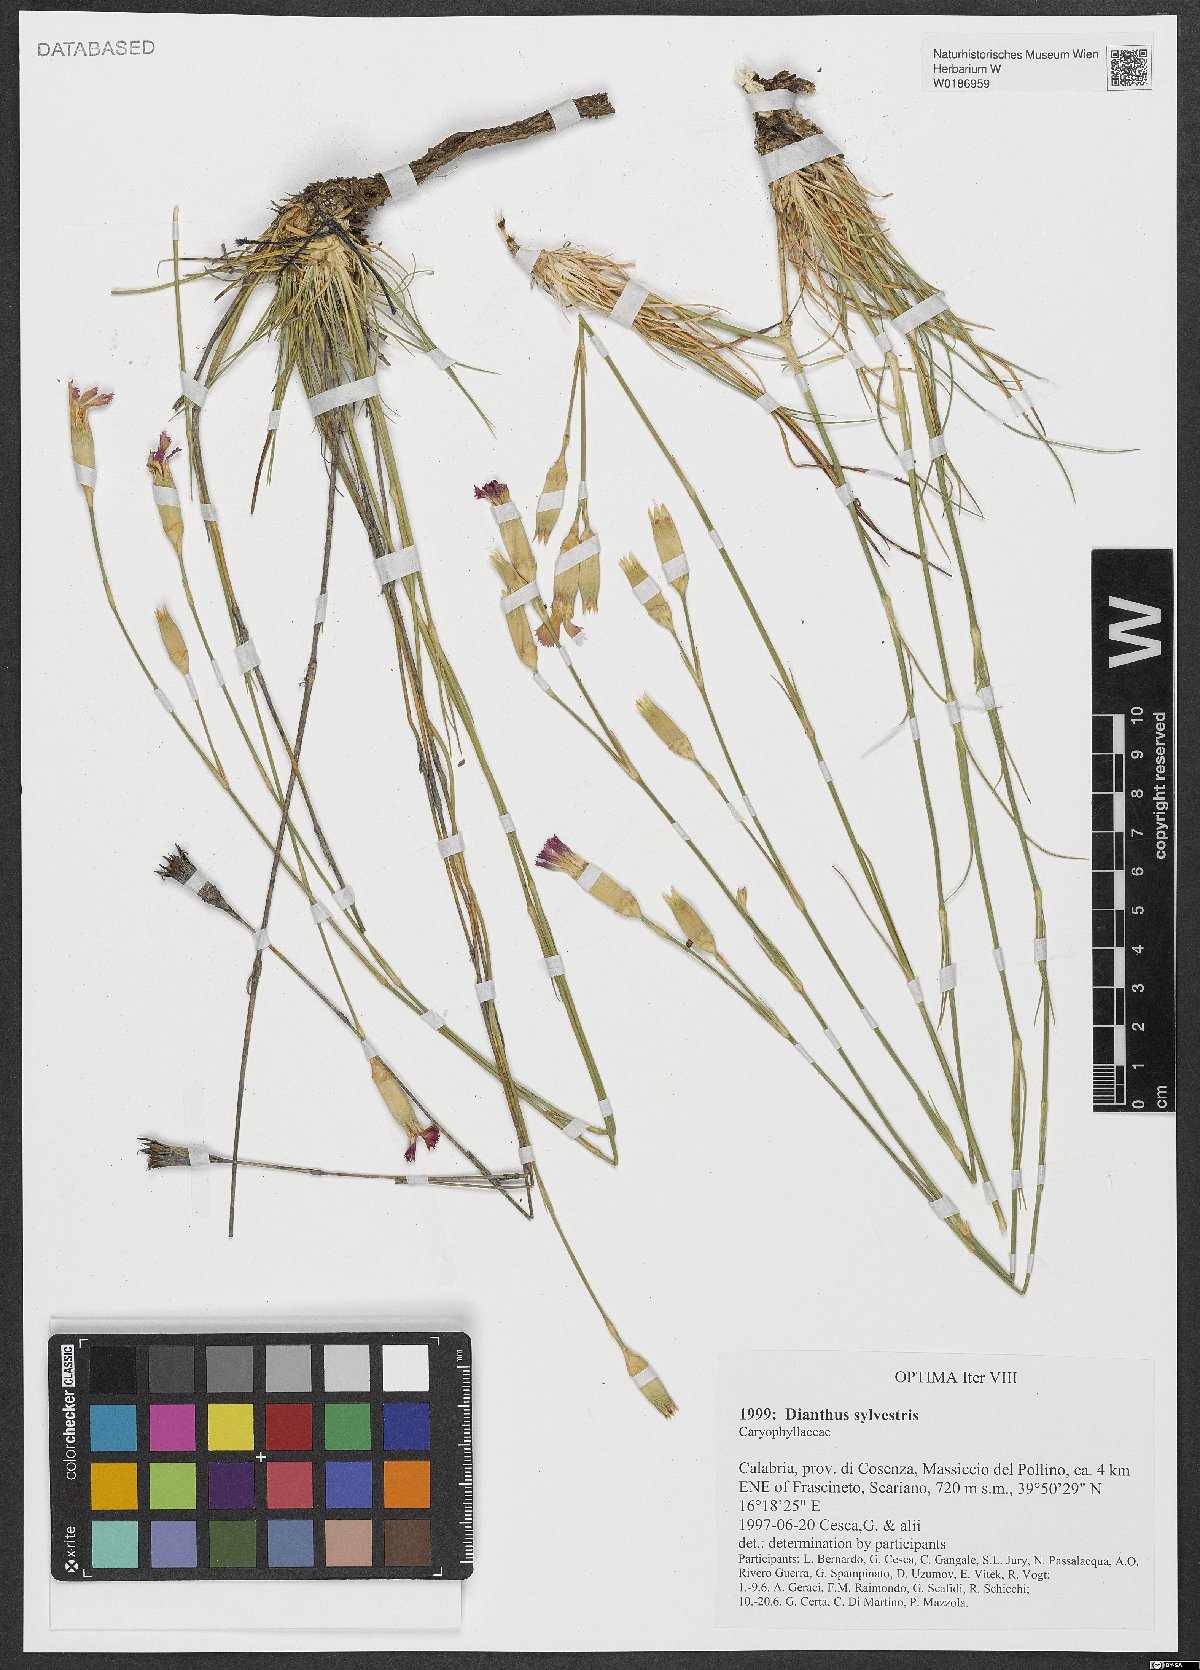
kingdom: Plantae
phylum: Tracheophyta
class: Magnoliopsida
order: Caryophyllales
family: Caryophyllaceae
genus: Dianthus
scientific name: Dianthus sylvestris
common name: Wood pink
